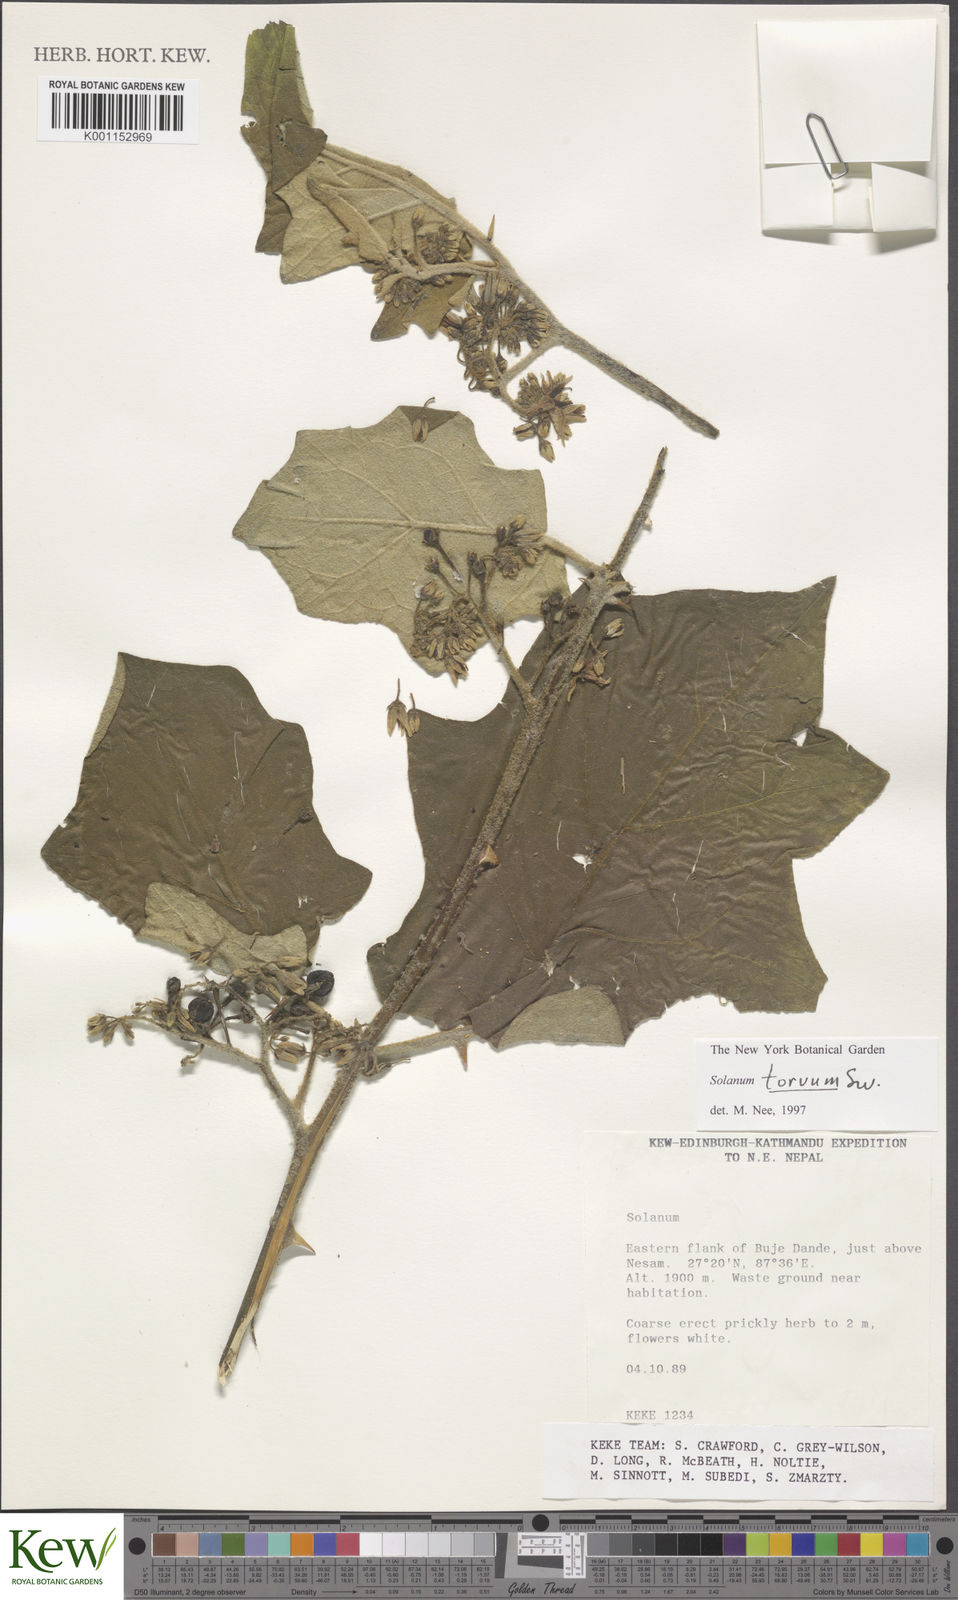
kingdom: Plantae
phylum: Tracheophyta
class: Magnoliopsida
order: Solanales
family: Solanaceae
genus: Solanum
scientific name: Solanum torvum
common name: Turkey berry
